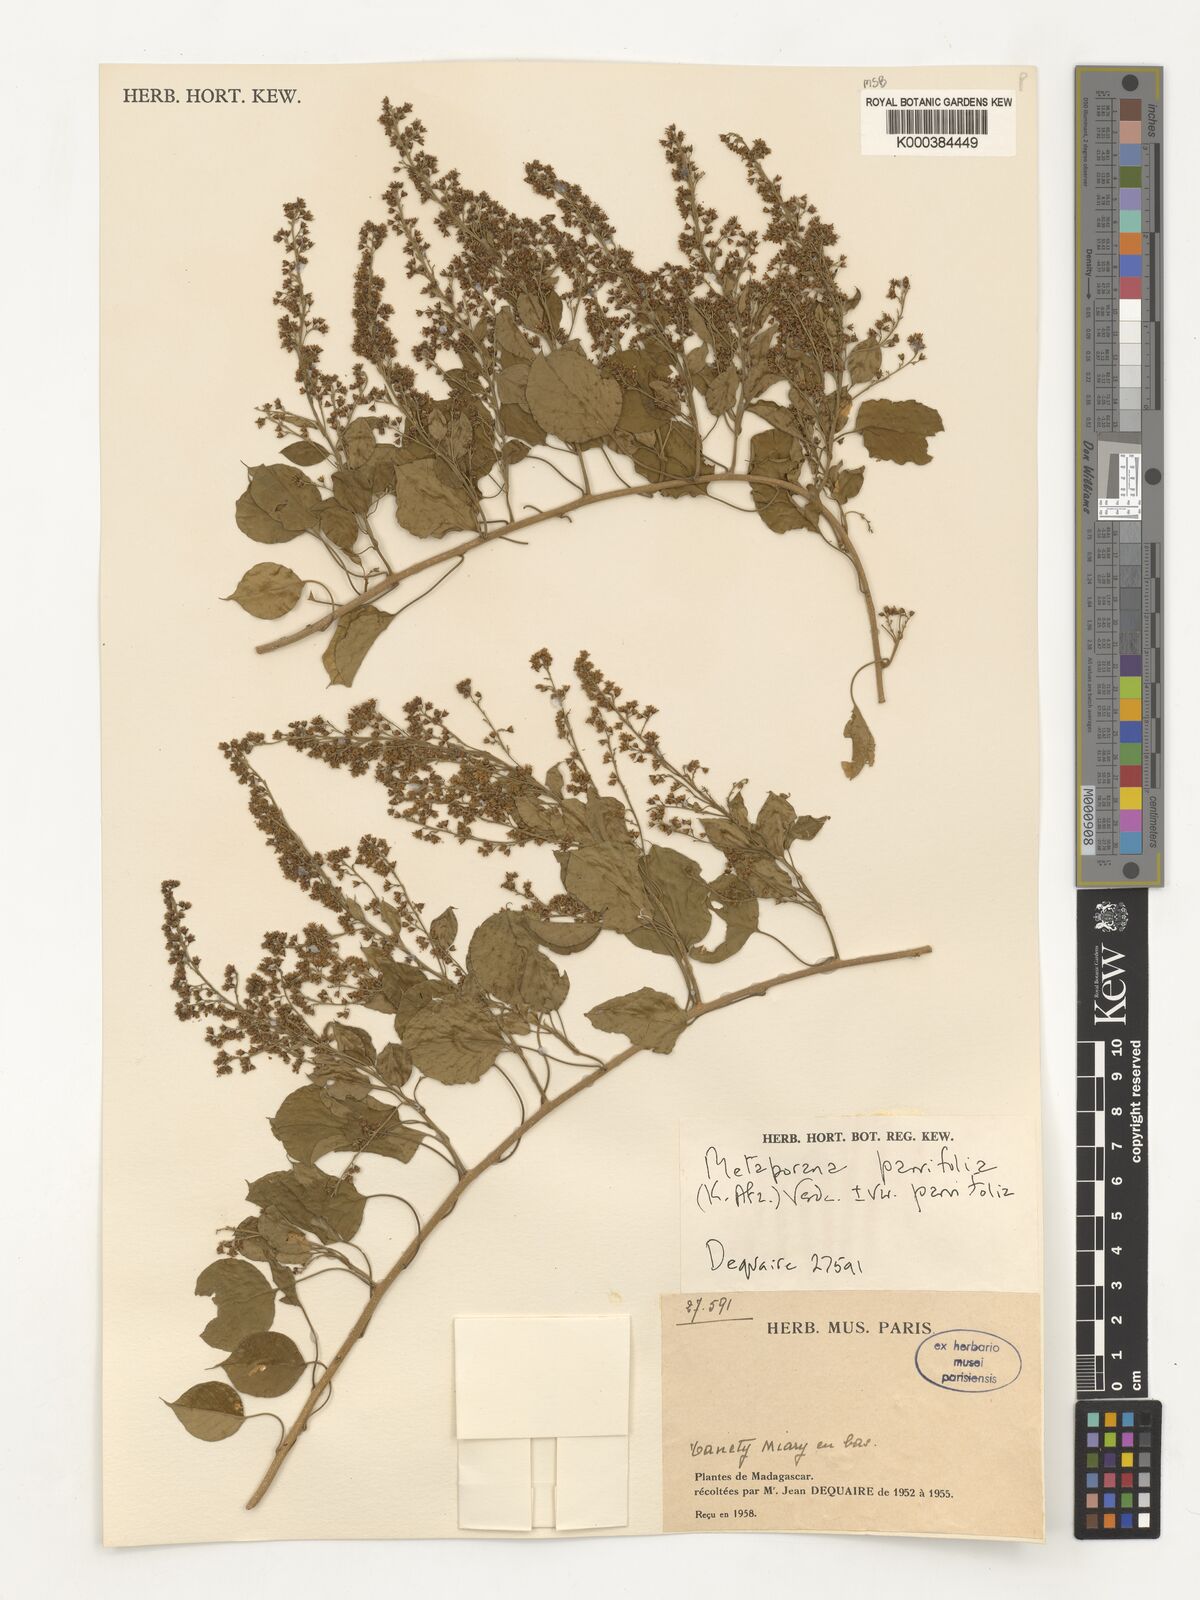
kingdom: Plantae
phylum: Tracheophyta
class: Magnoliopsida
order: Solanales
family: Convolvulaceae
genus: Metaporana
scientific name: Metaporana parvifolia
